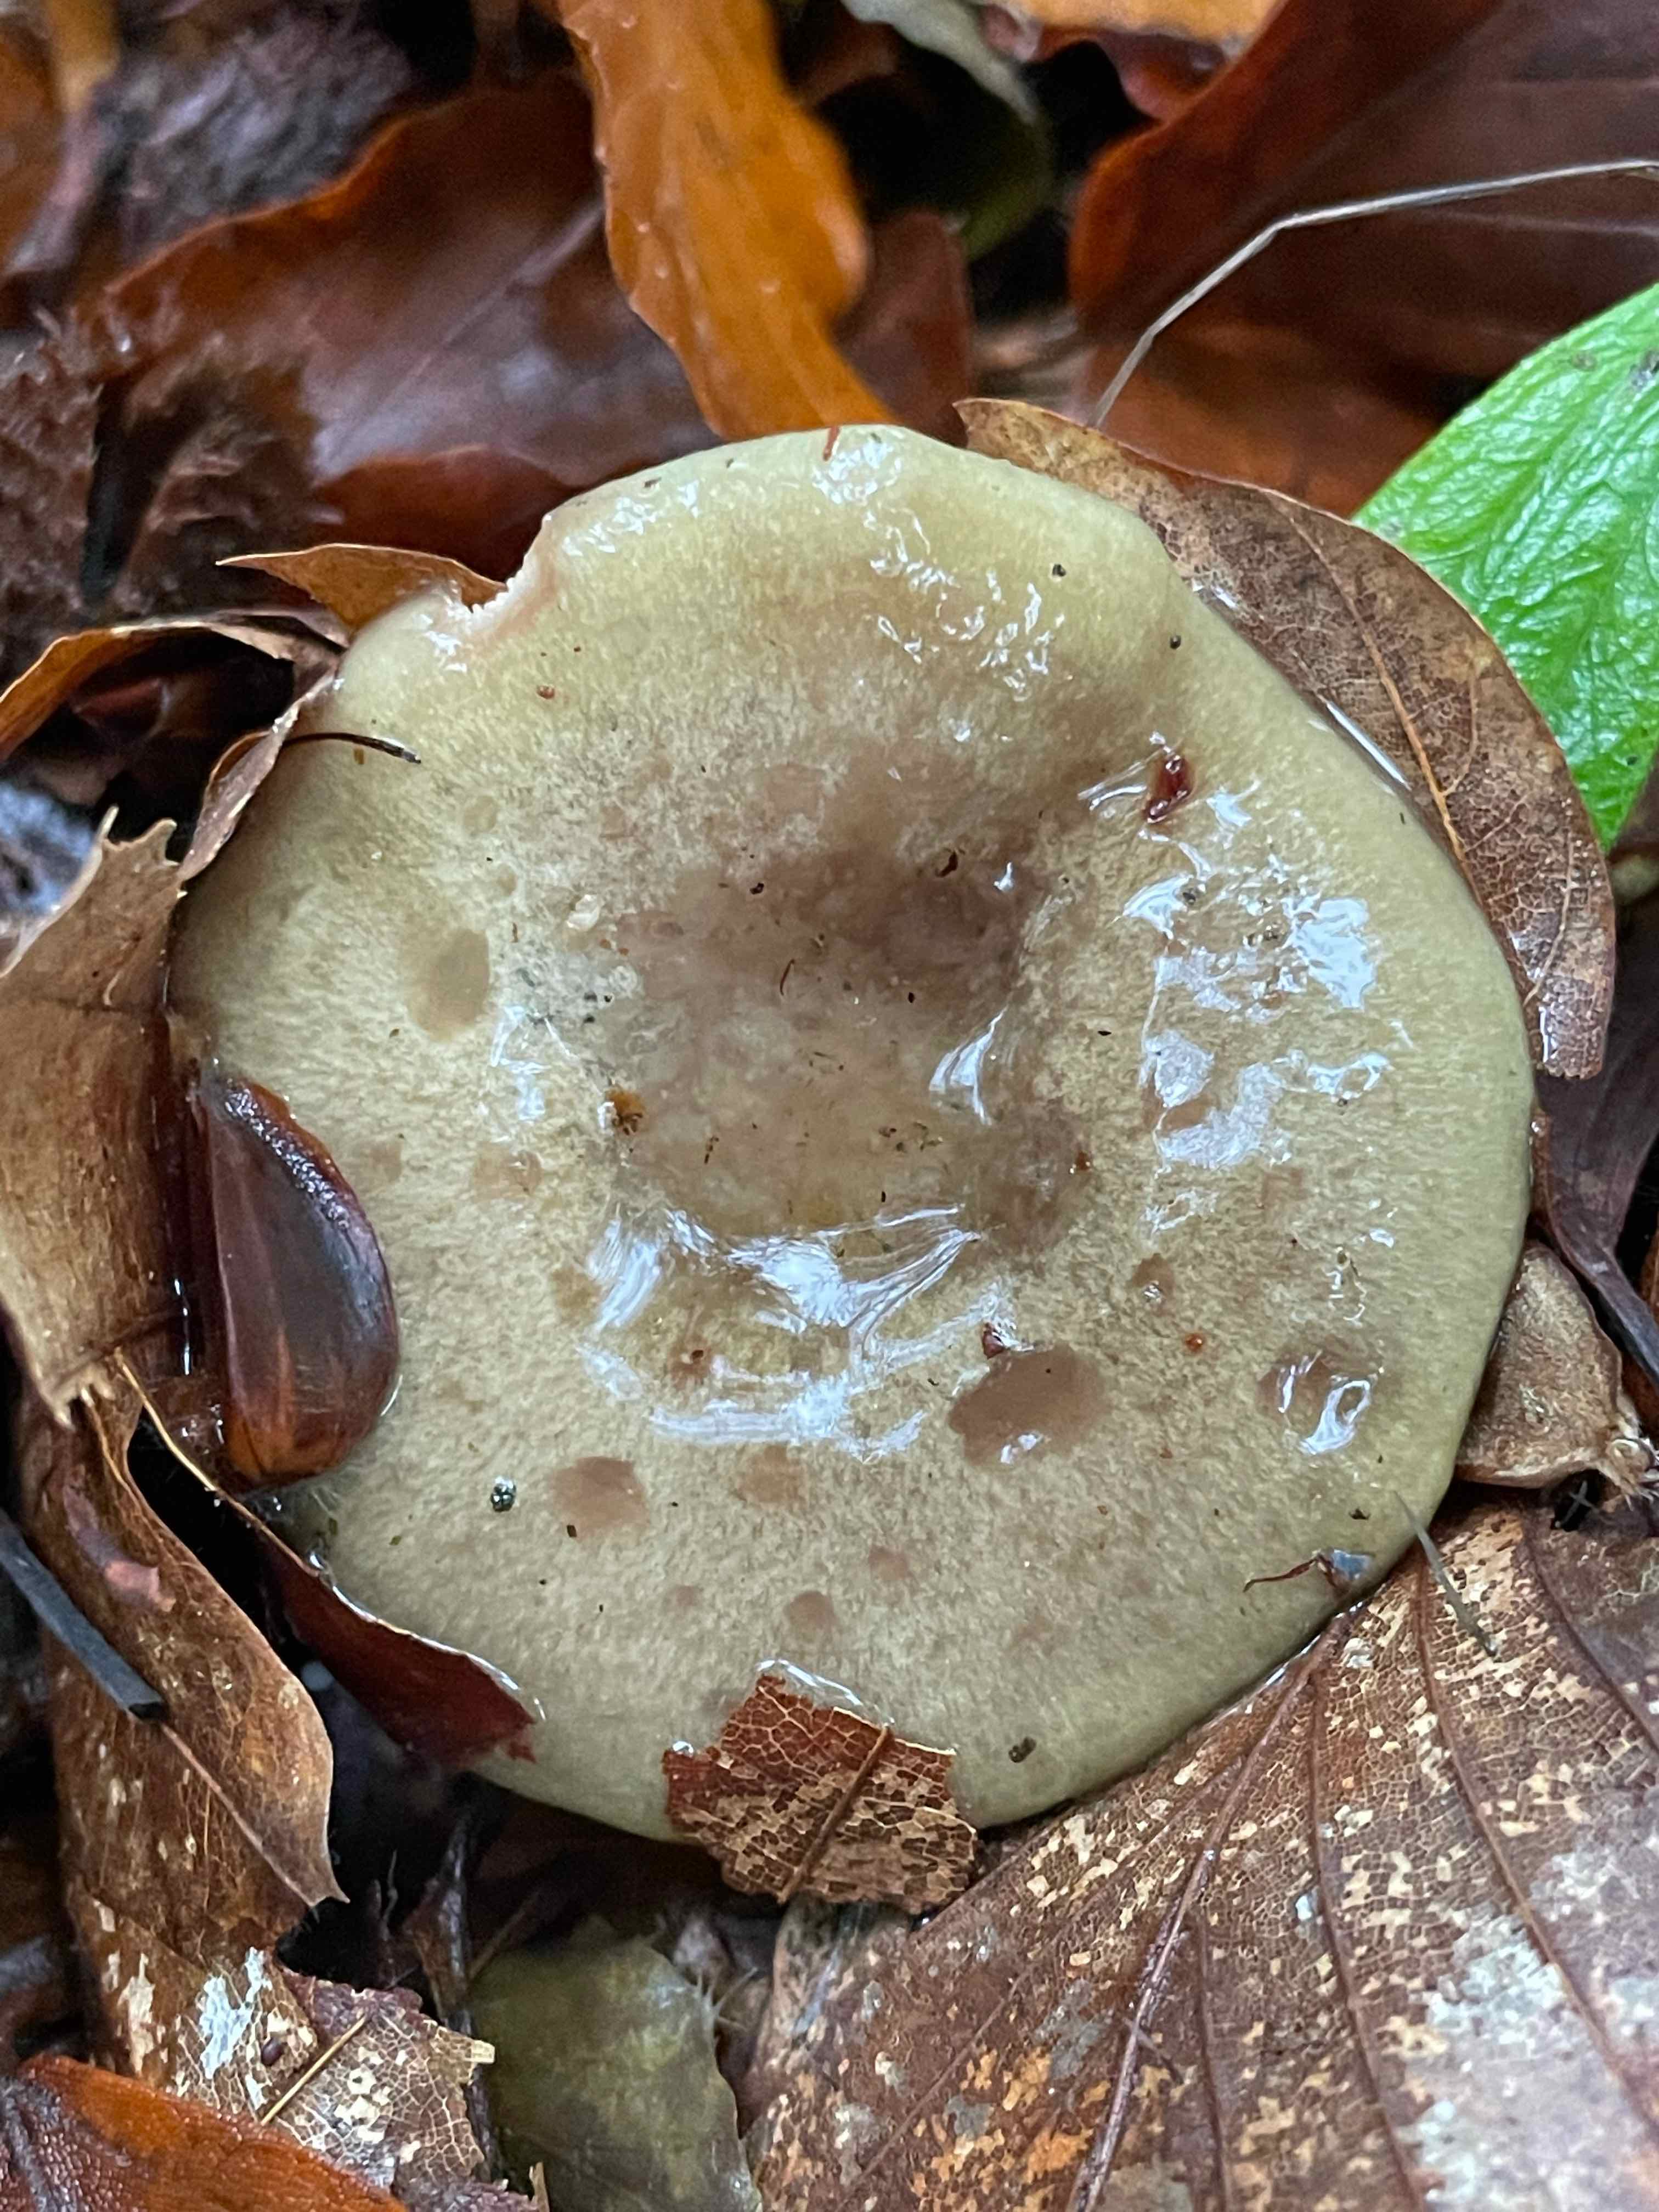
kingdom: Fungi
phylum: Basidiomycota
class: Agaricomycetes
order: Russulales
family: Russulaceae
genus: Lactarius
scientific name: Lactarius blennius
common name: dråbeplettet mælkehat
